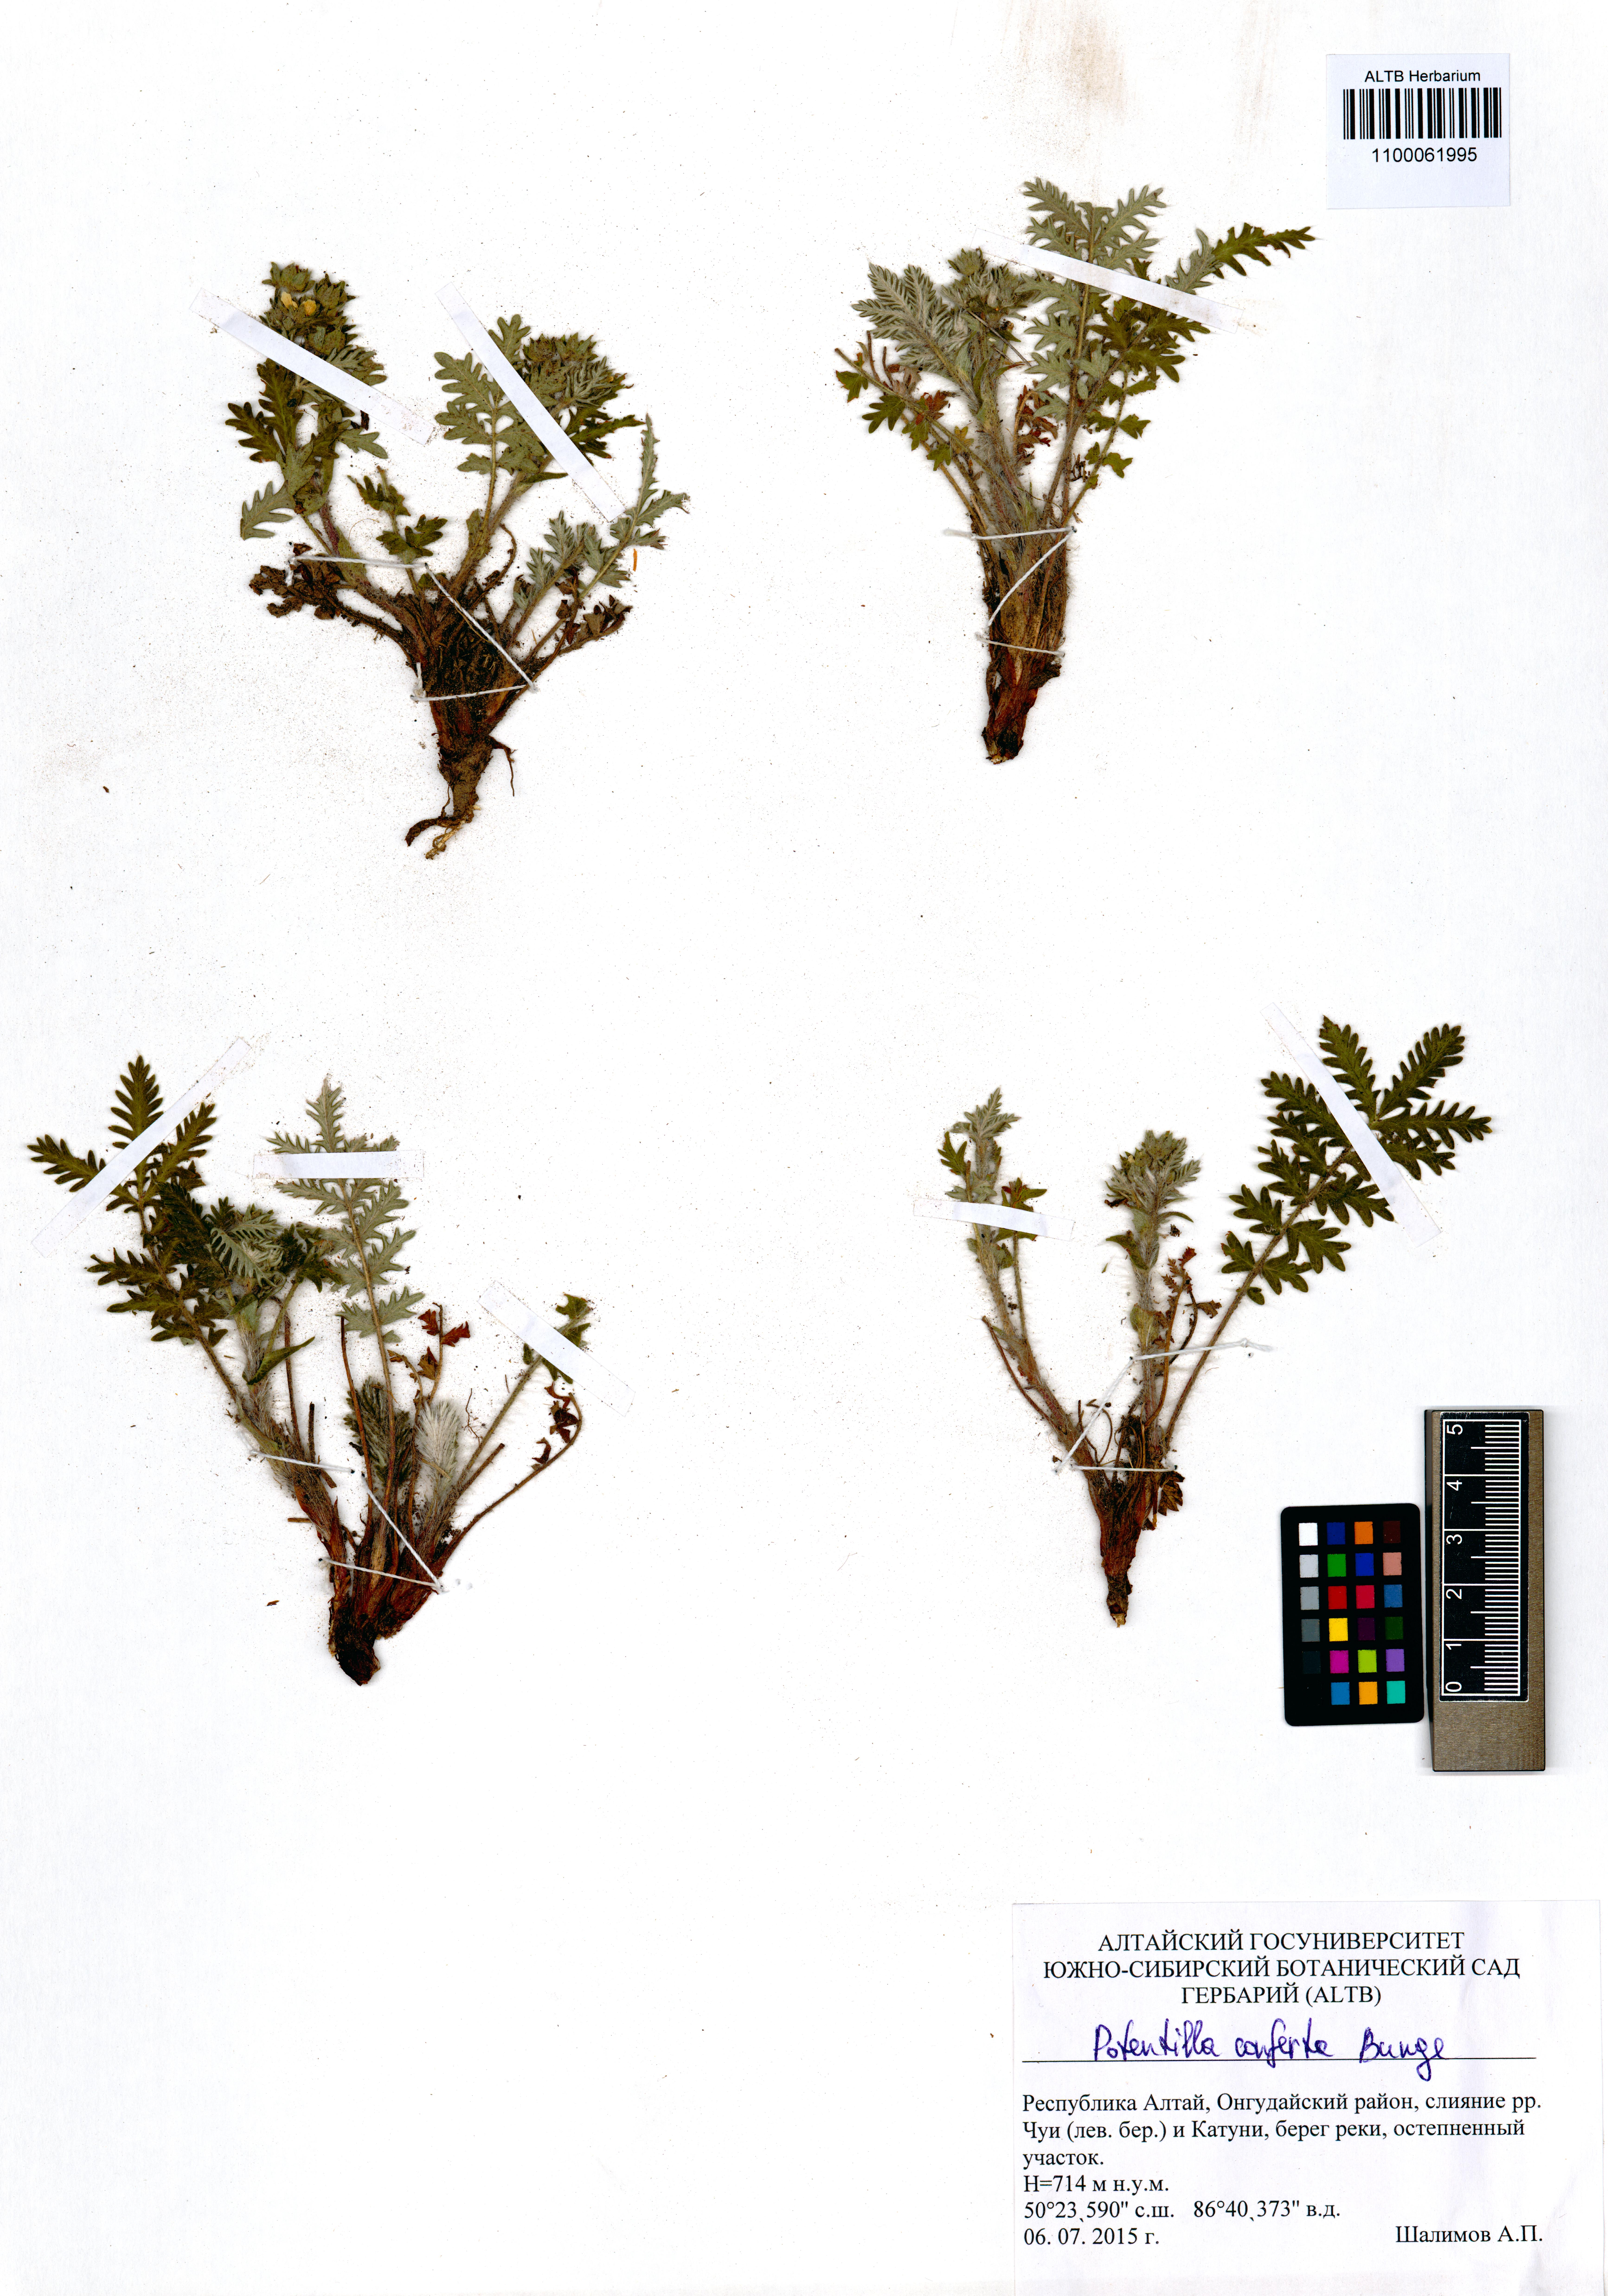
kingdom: Plantae
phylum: Tracheophyta
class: Magnoliopsida
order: Rosales
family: Rosaceae
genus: Potentilla
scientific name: Potentilla conferta
